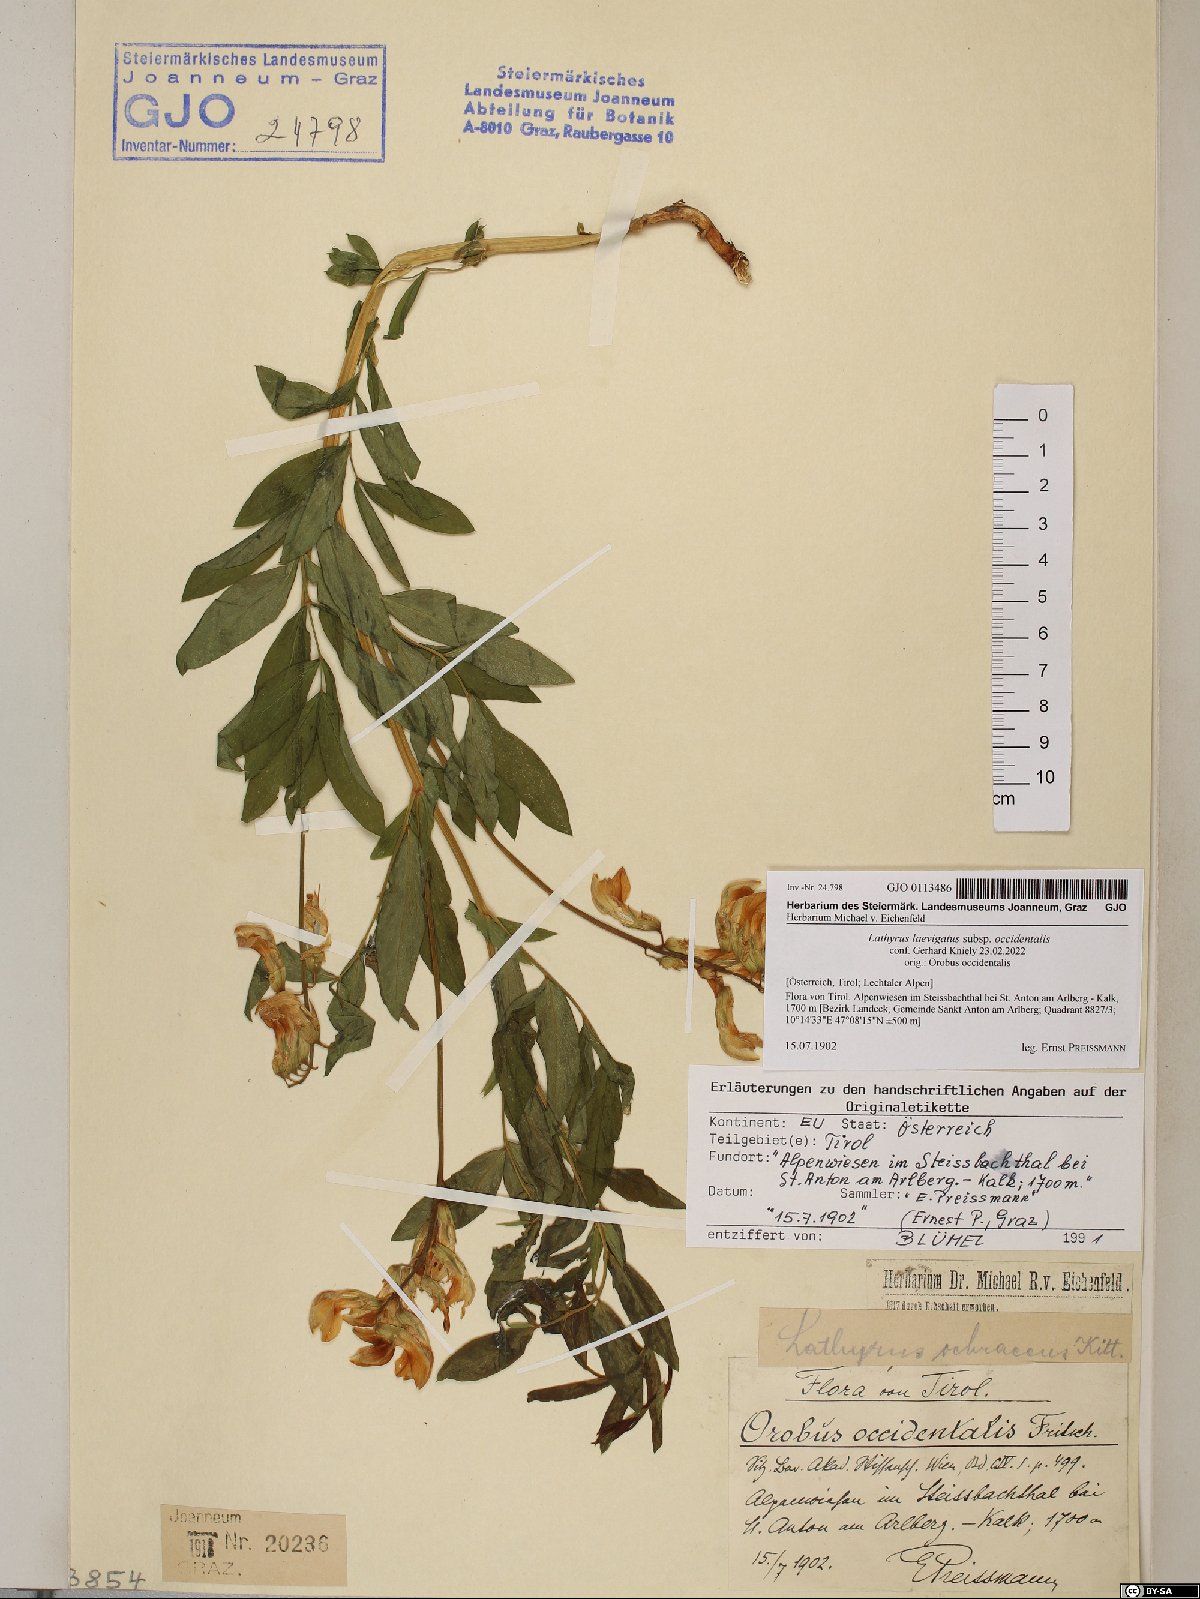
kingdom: Plantae
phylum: Tracheophyta
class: Magnoliopsida
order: Fabales
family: Fabaceae
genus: Lathyrus
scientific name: Lathyrus laevigatus
